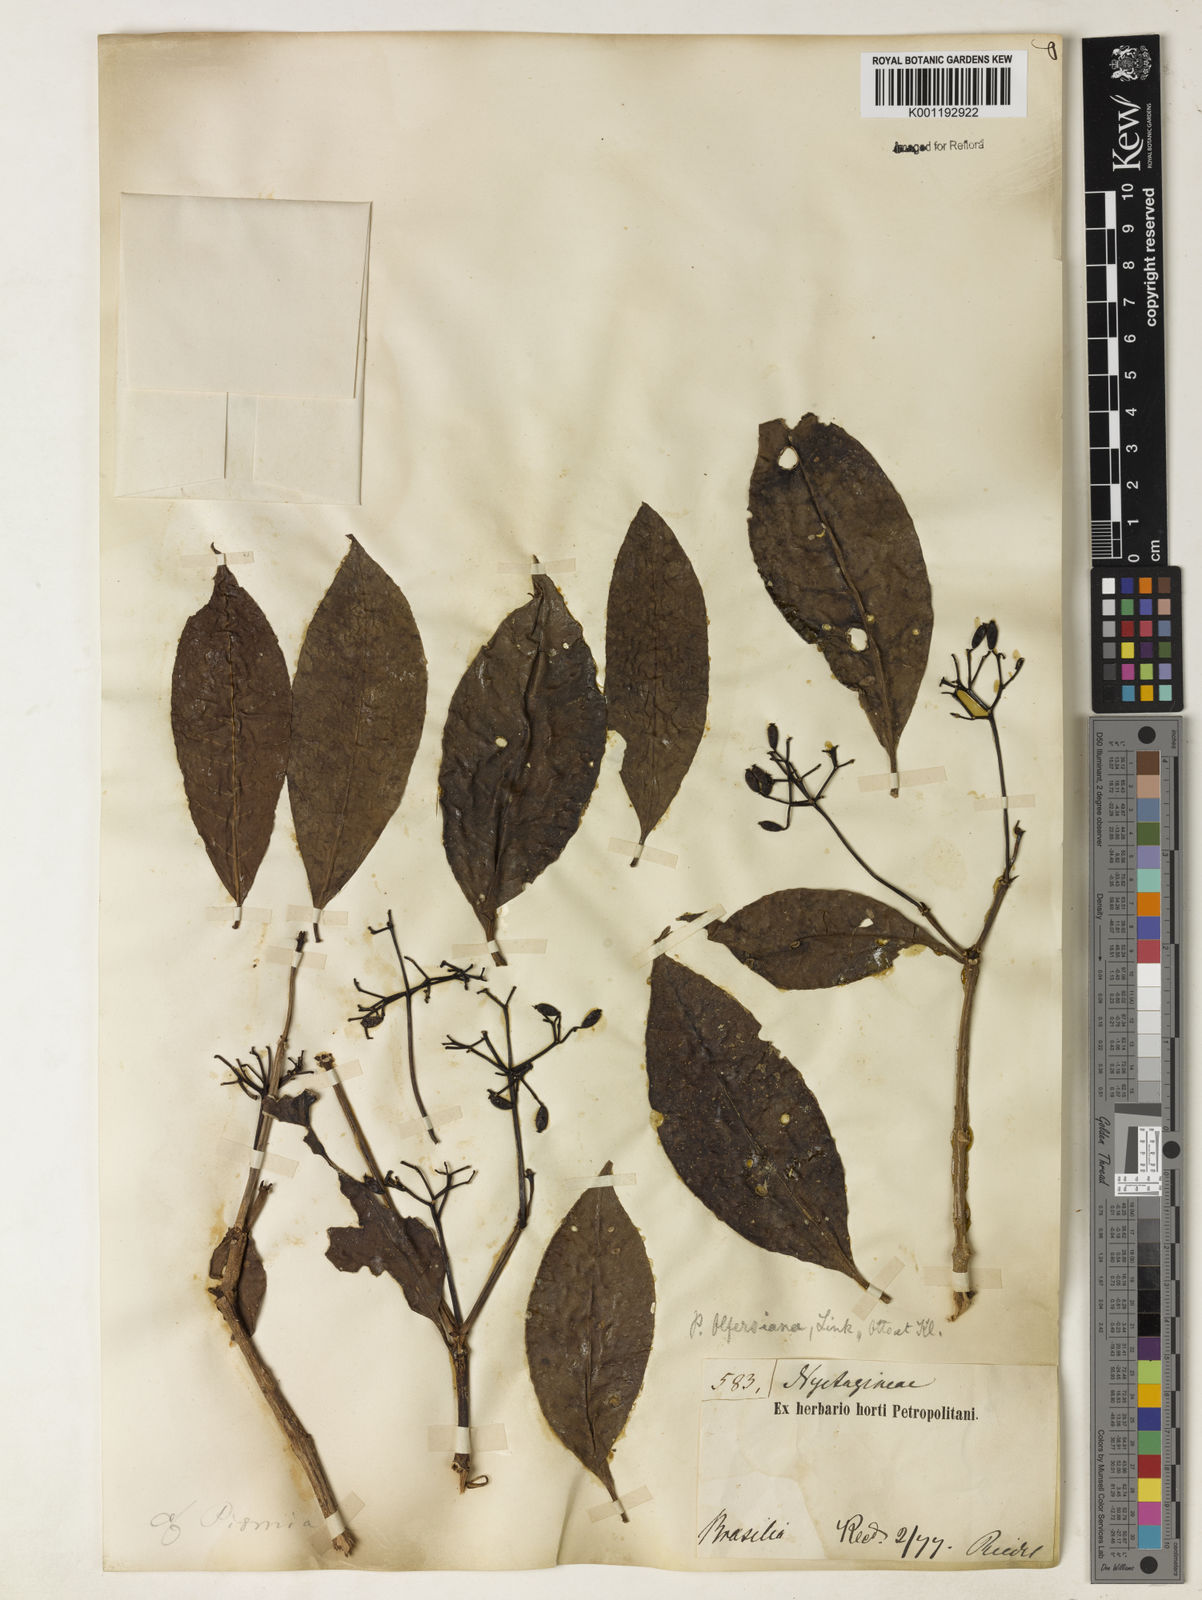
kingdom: Plantae
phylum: Tracheophyta
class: Magnoliopsida
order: Caryophyllales
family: Nyctaginaceae
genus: Guapira
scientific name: Guapira
